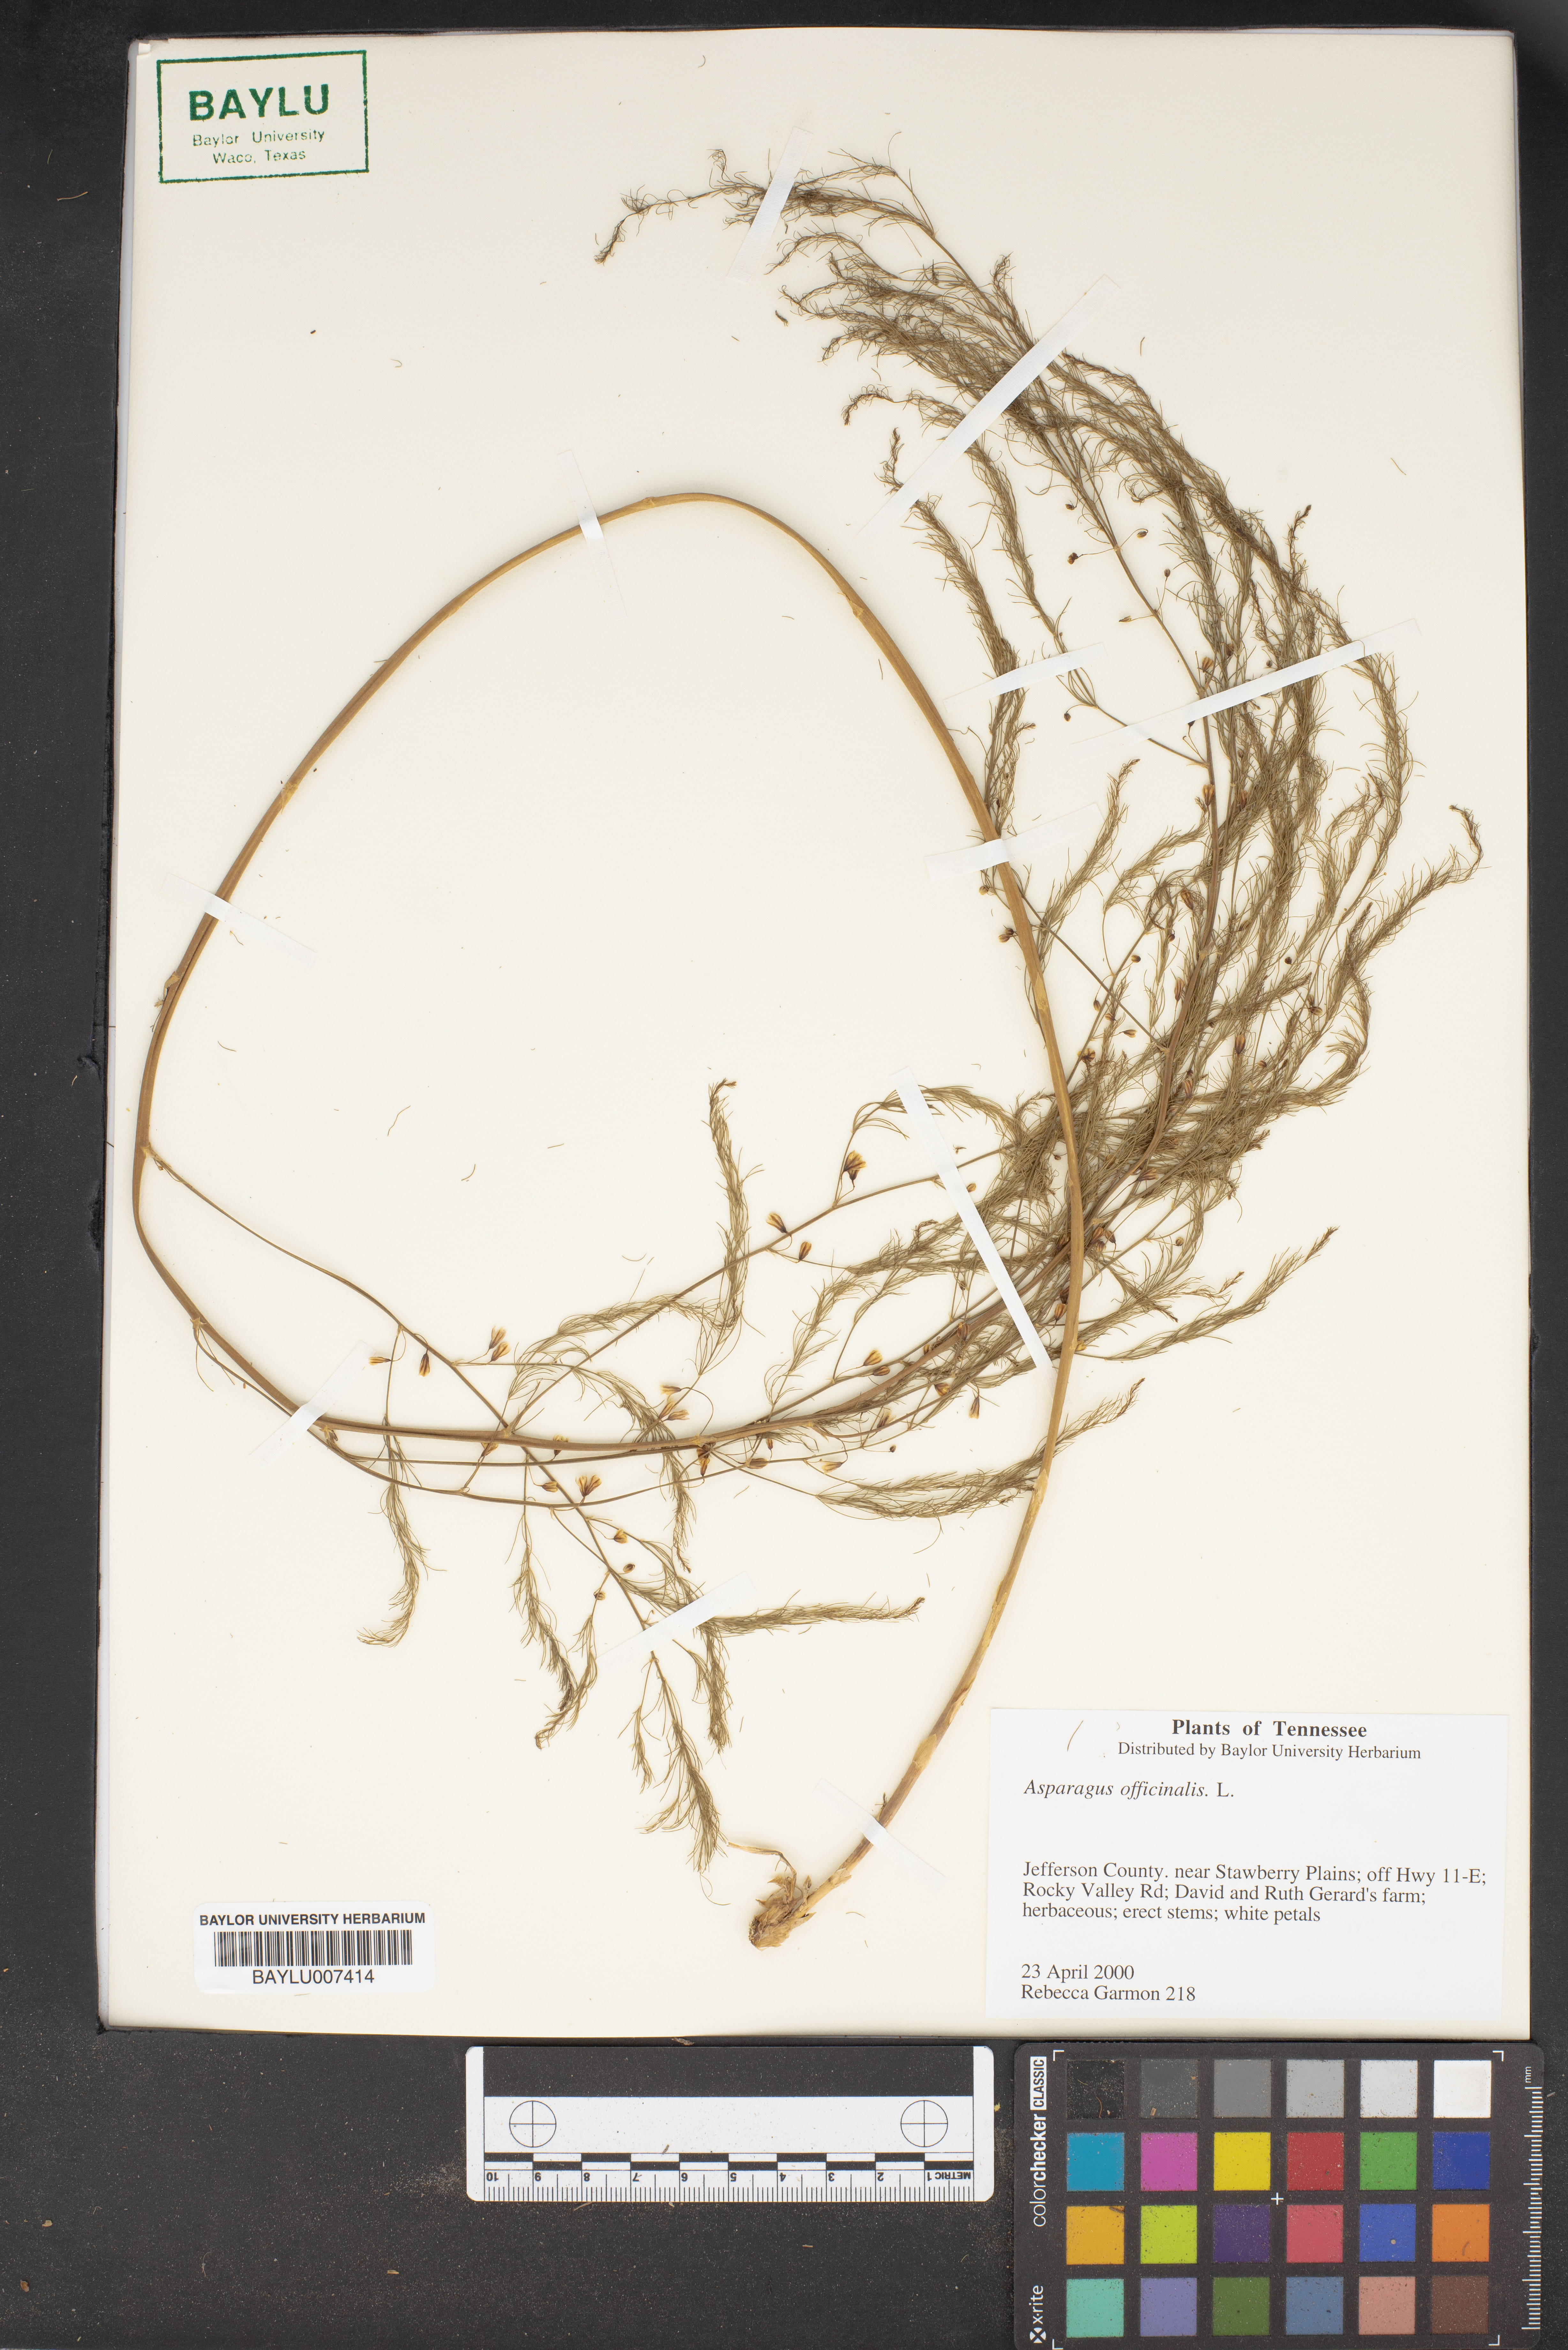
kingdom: Plantae
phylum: Tracheophyta
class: Liliopsida
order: Asparagales
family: Asparagaceae
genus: Asparagus
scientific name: Asparagus officinalis
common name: Garden asparagus
